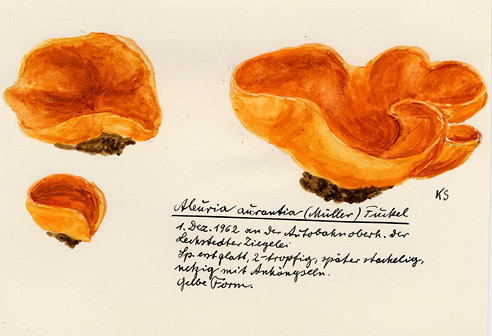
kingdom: Fungi
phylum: Ascomycota
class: Pezizomycetes
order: Pezizales
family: Pyronemataceae
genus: Aleuria
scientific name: Aleuria aurantia
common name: Orange peel fungus
